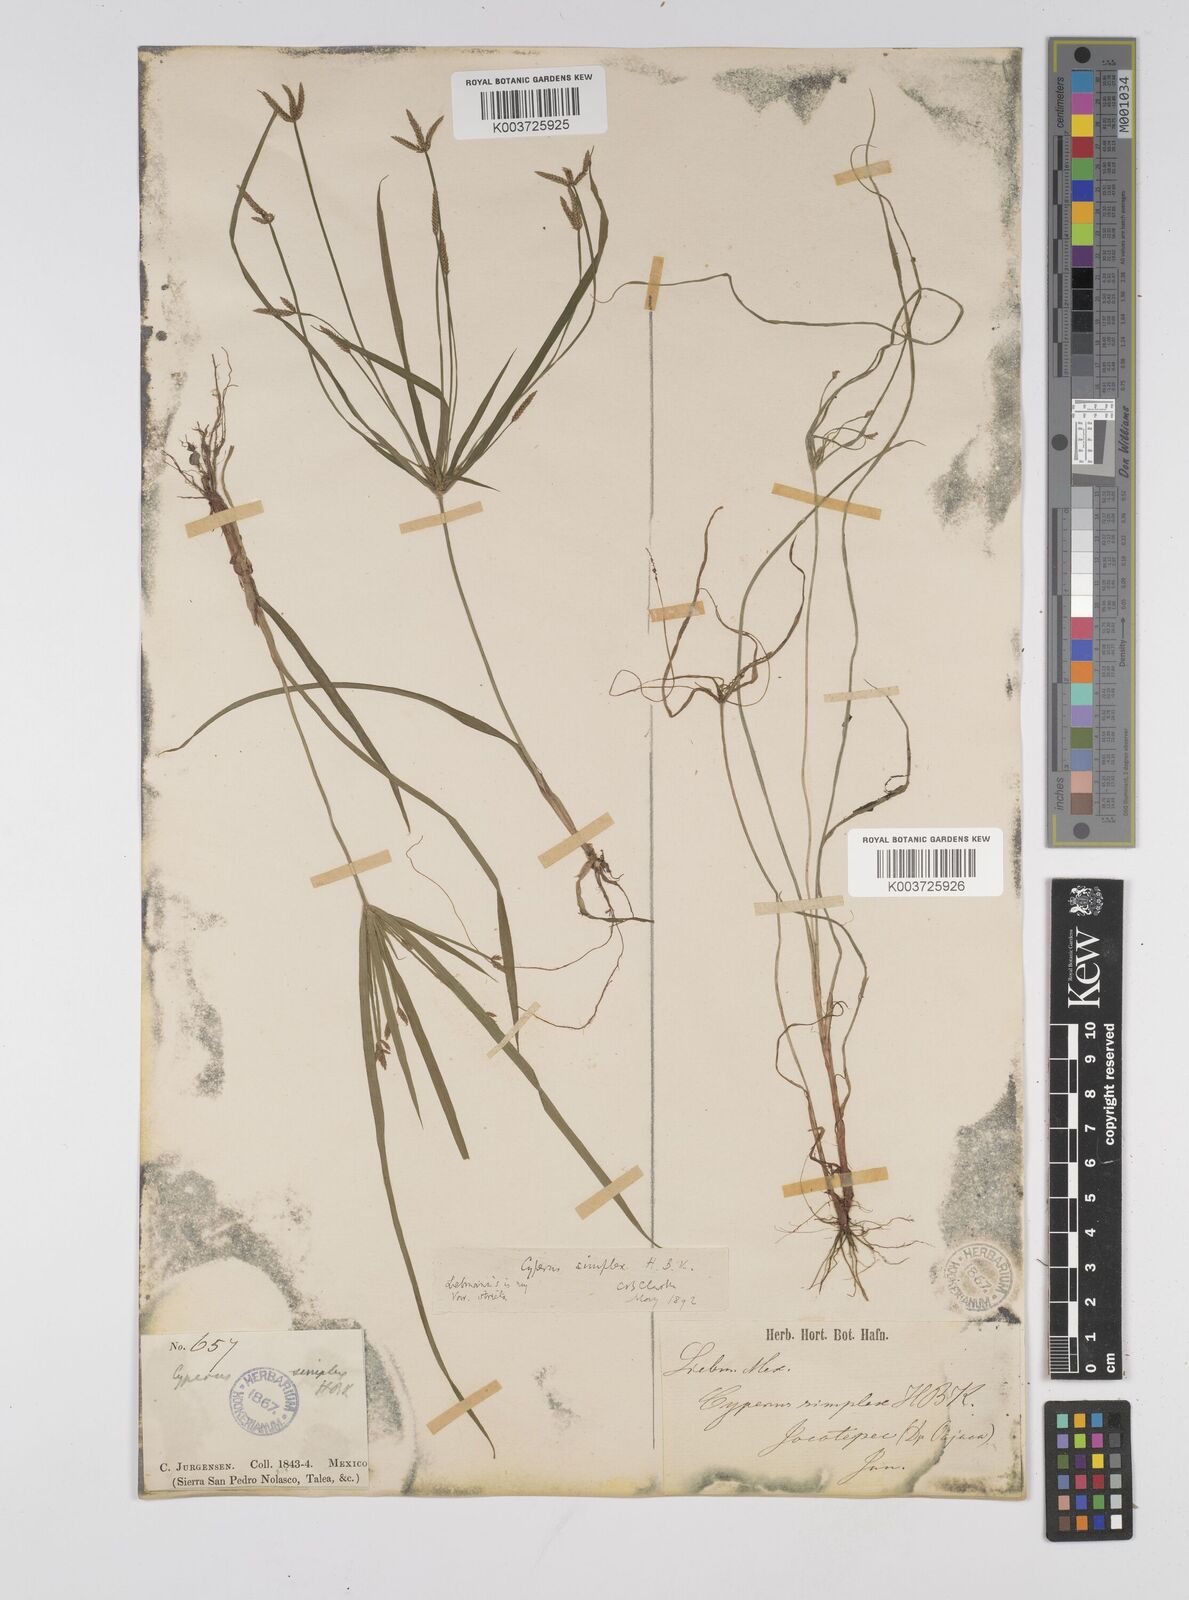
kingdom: Plantae
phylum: Tracheophyta
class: Liliopsida
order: Poales
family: Cyperaceae
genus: Cyperus
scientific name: Cyperus simplex
